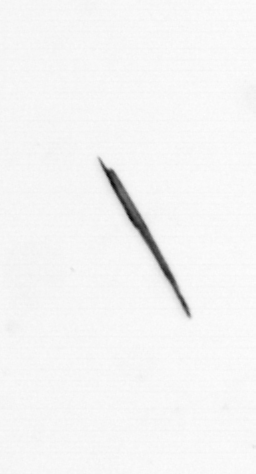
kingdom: Bacteria
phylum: Cyanobacteria
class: Cyanobacteriia
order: Cyanobacteriales
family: Microcoleaceae
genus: Trichodesmium
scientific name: Trichodesmium
